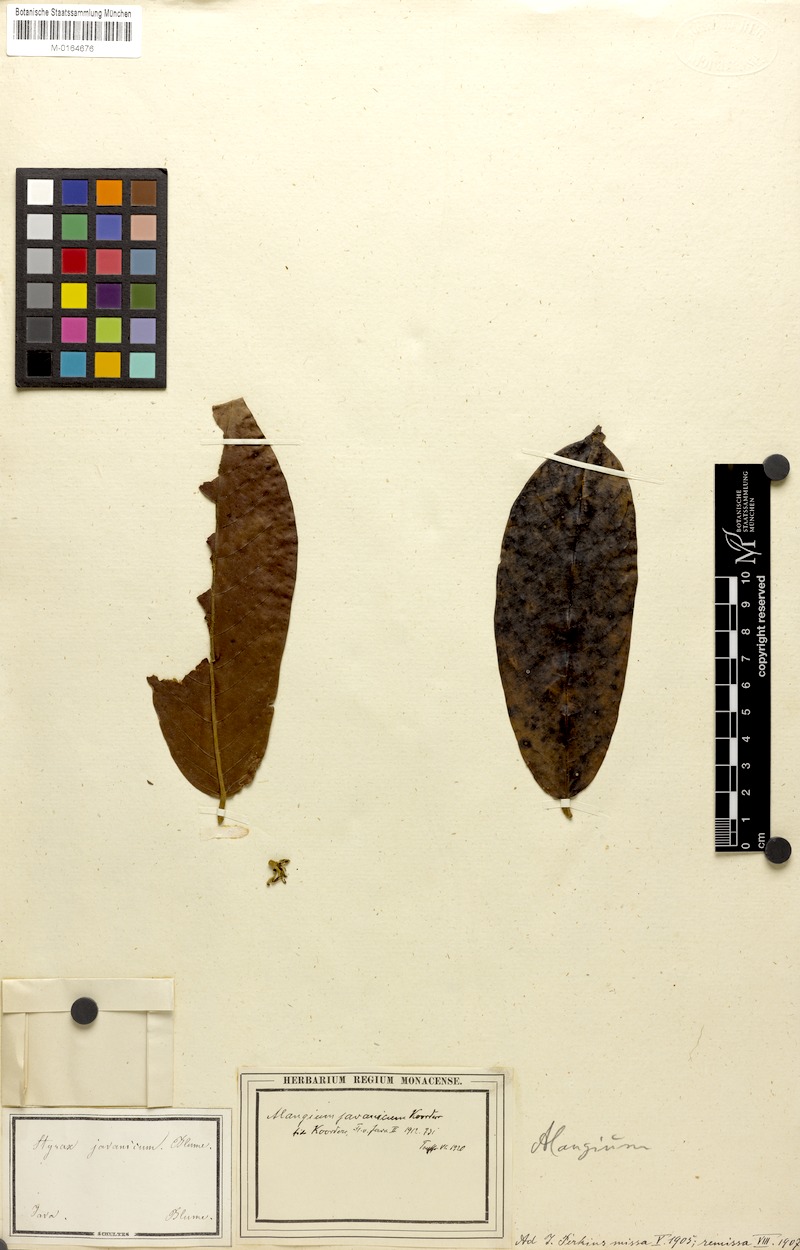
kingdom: Plantae
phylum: Tracheophyta
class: Magnoliopsida
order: Cornales
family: Cornaceae
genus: Alangium
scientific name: Alangium javanicum
